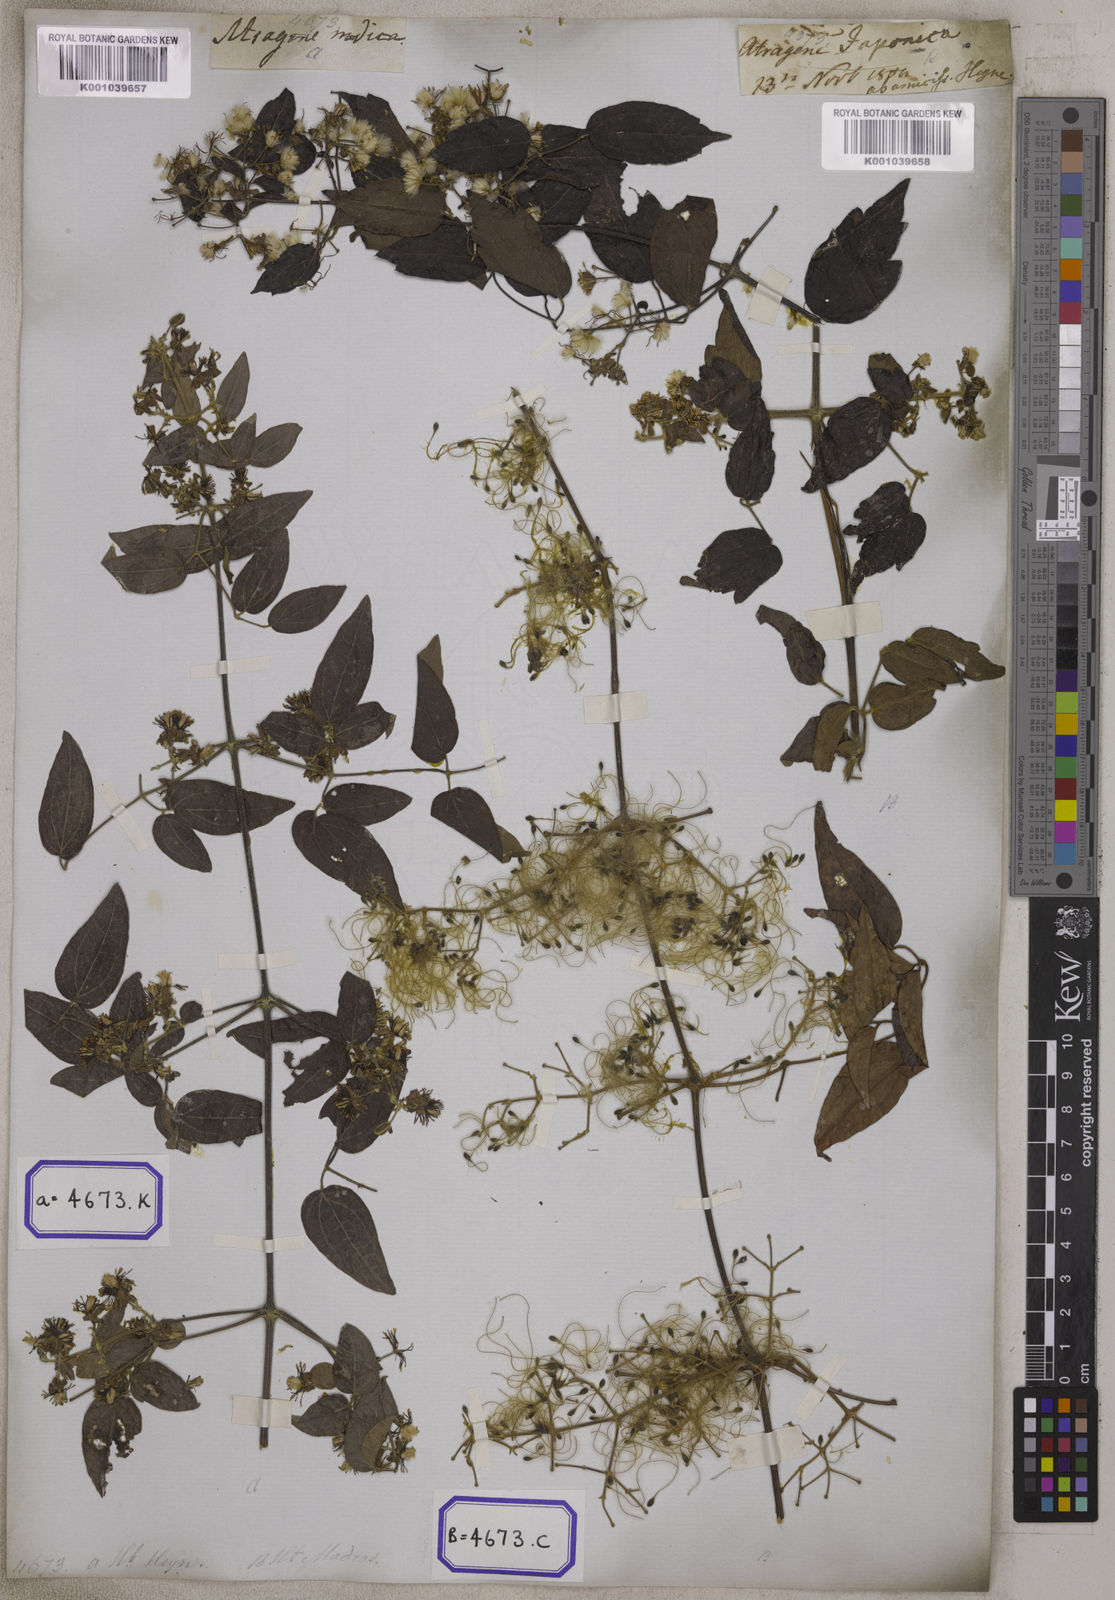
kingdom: Plantae
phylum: Tracheophyta
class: Magnoliopsida
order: Ranunculales
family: Ranunculaceae
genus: Clematis
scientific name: Clematis
